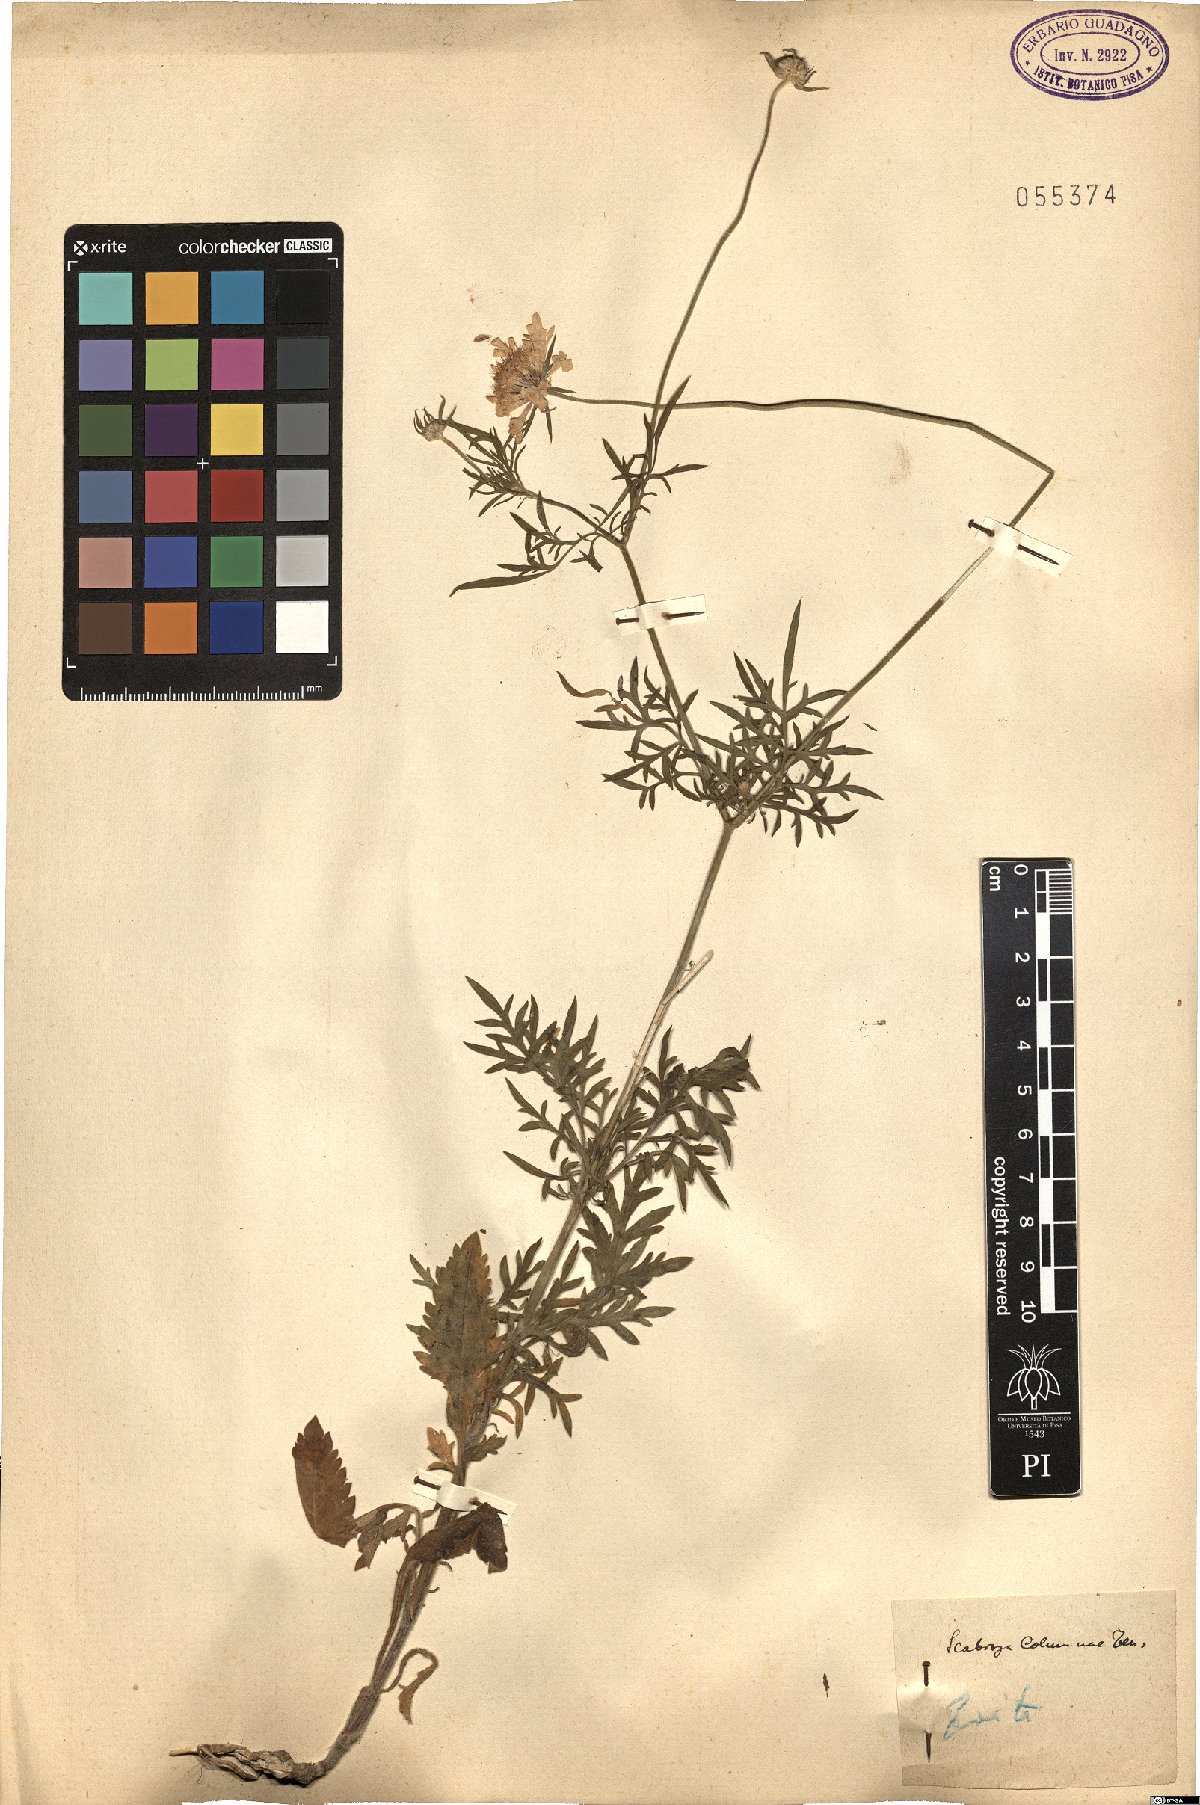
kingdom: Plantae
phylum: Tracheophyta
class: Magnoliopsida
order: Dipsacales
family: Caprifoliaceae
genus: Scabiosa
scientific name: Scabiosa holosericea
